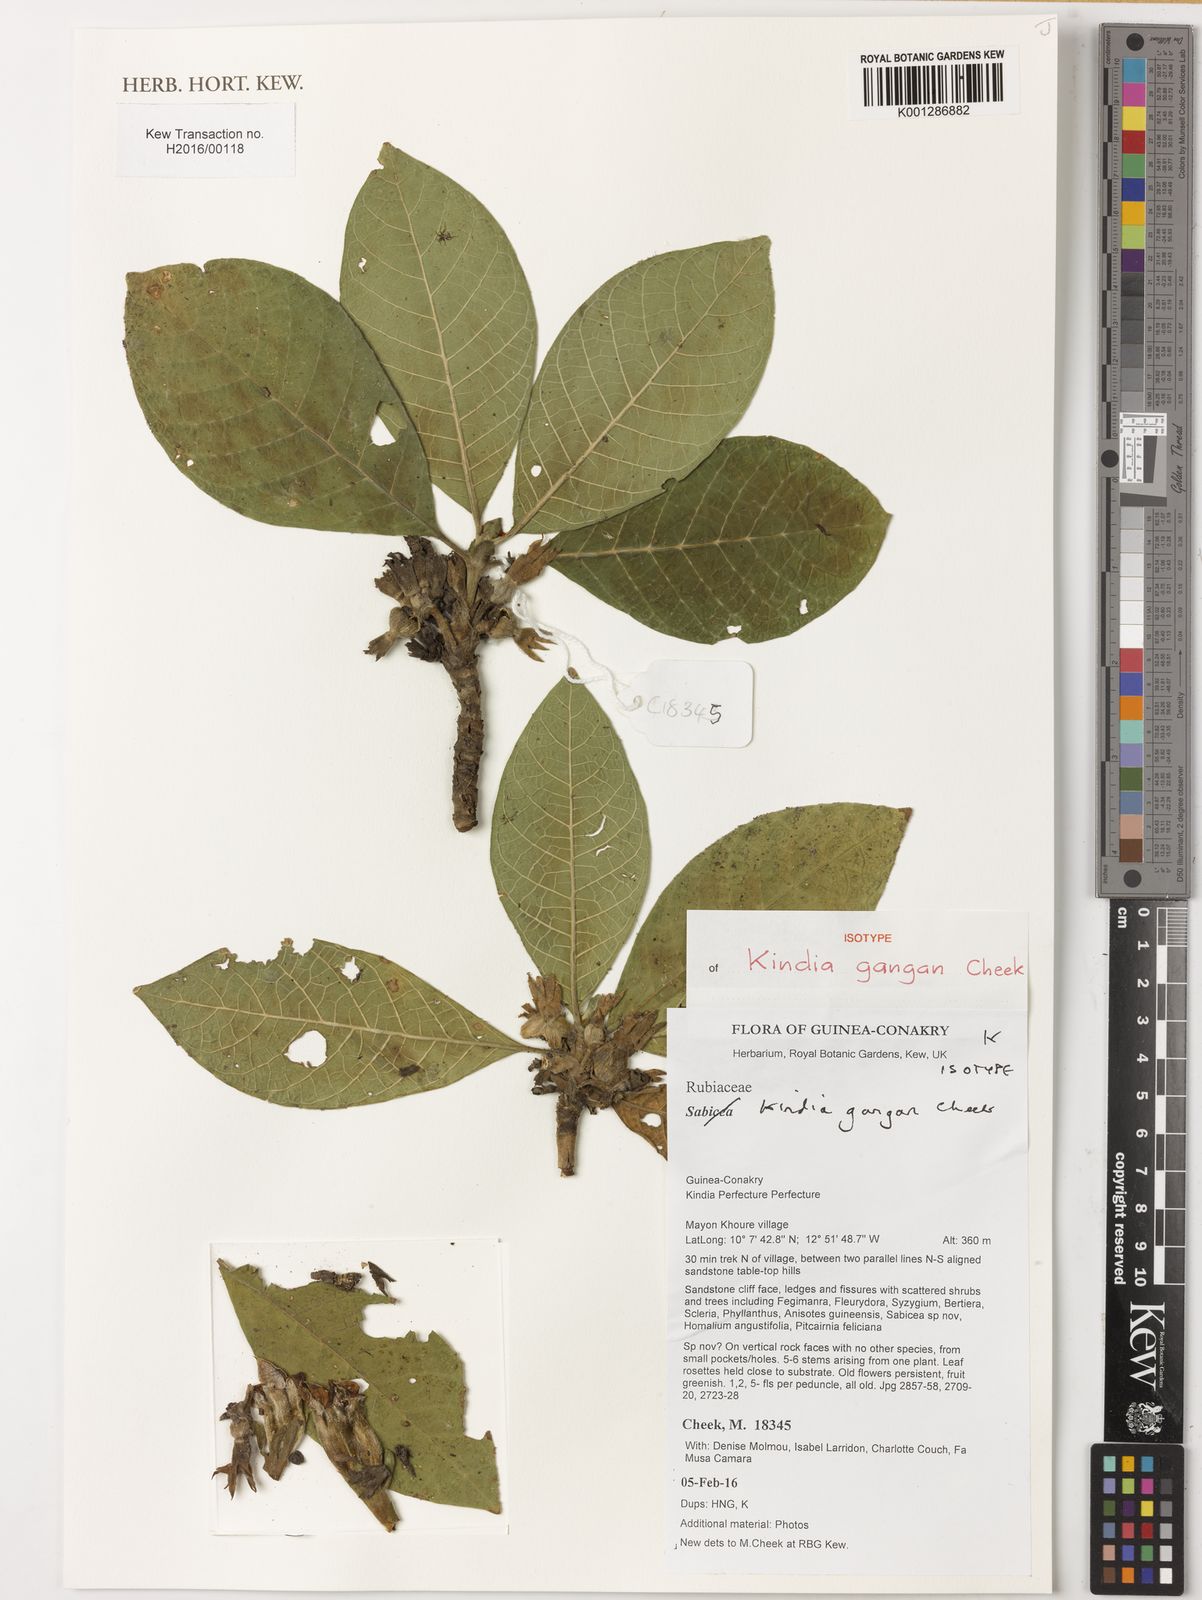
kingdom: Plantae
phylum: Tracheophyta
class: Magnoliopsida
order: Gentianales
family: Rubiaceae
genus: Kindia
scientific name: Kindia gangan
